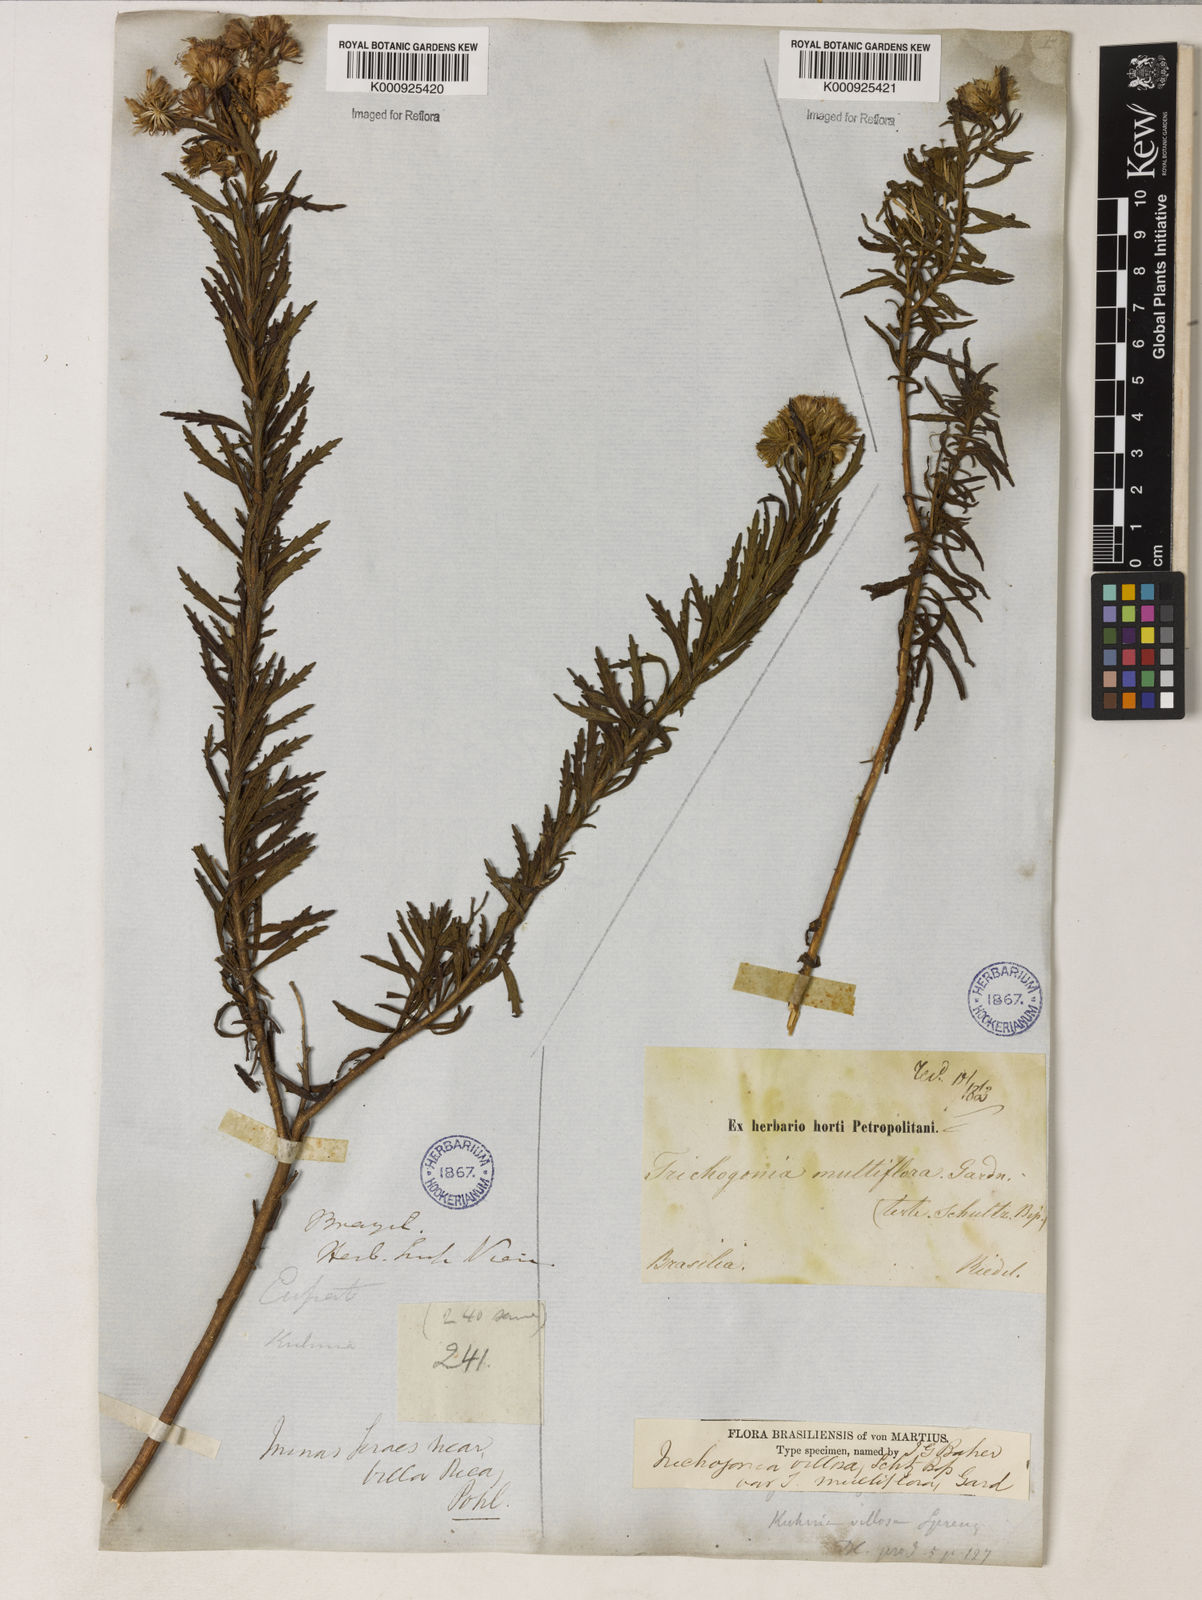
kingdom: Plantae
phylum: Tracheophyta
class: Magnoliopsida
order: Asterales
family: Asteraceae
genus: Trichogonia
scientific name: Trichogonia villosa
